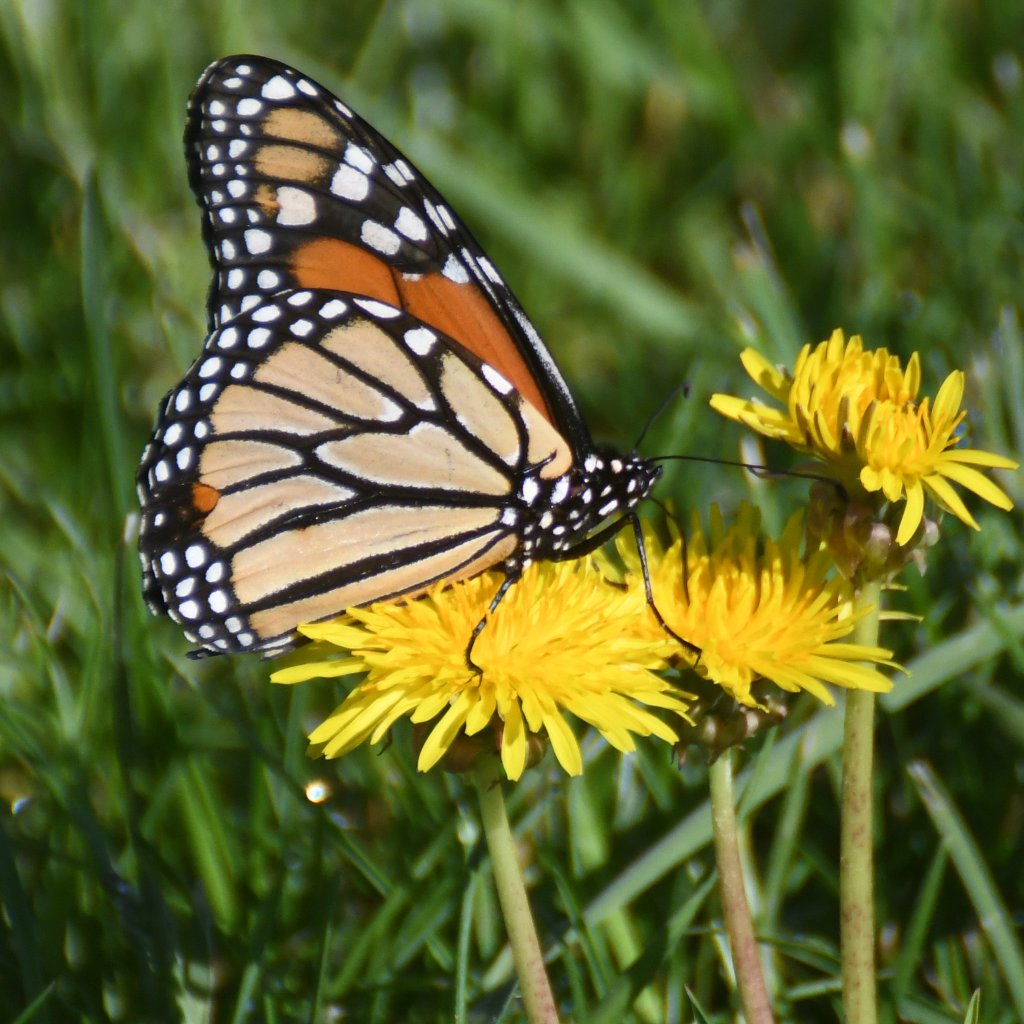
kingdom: Animalia
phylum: Arthropoda
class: Insecta
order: Lepidoptera
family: Nymphalidae
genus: Danaus
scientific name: Danaus plexippus
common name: Monarch
